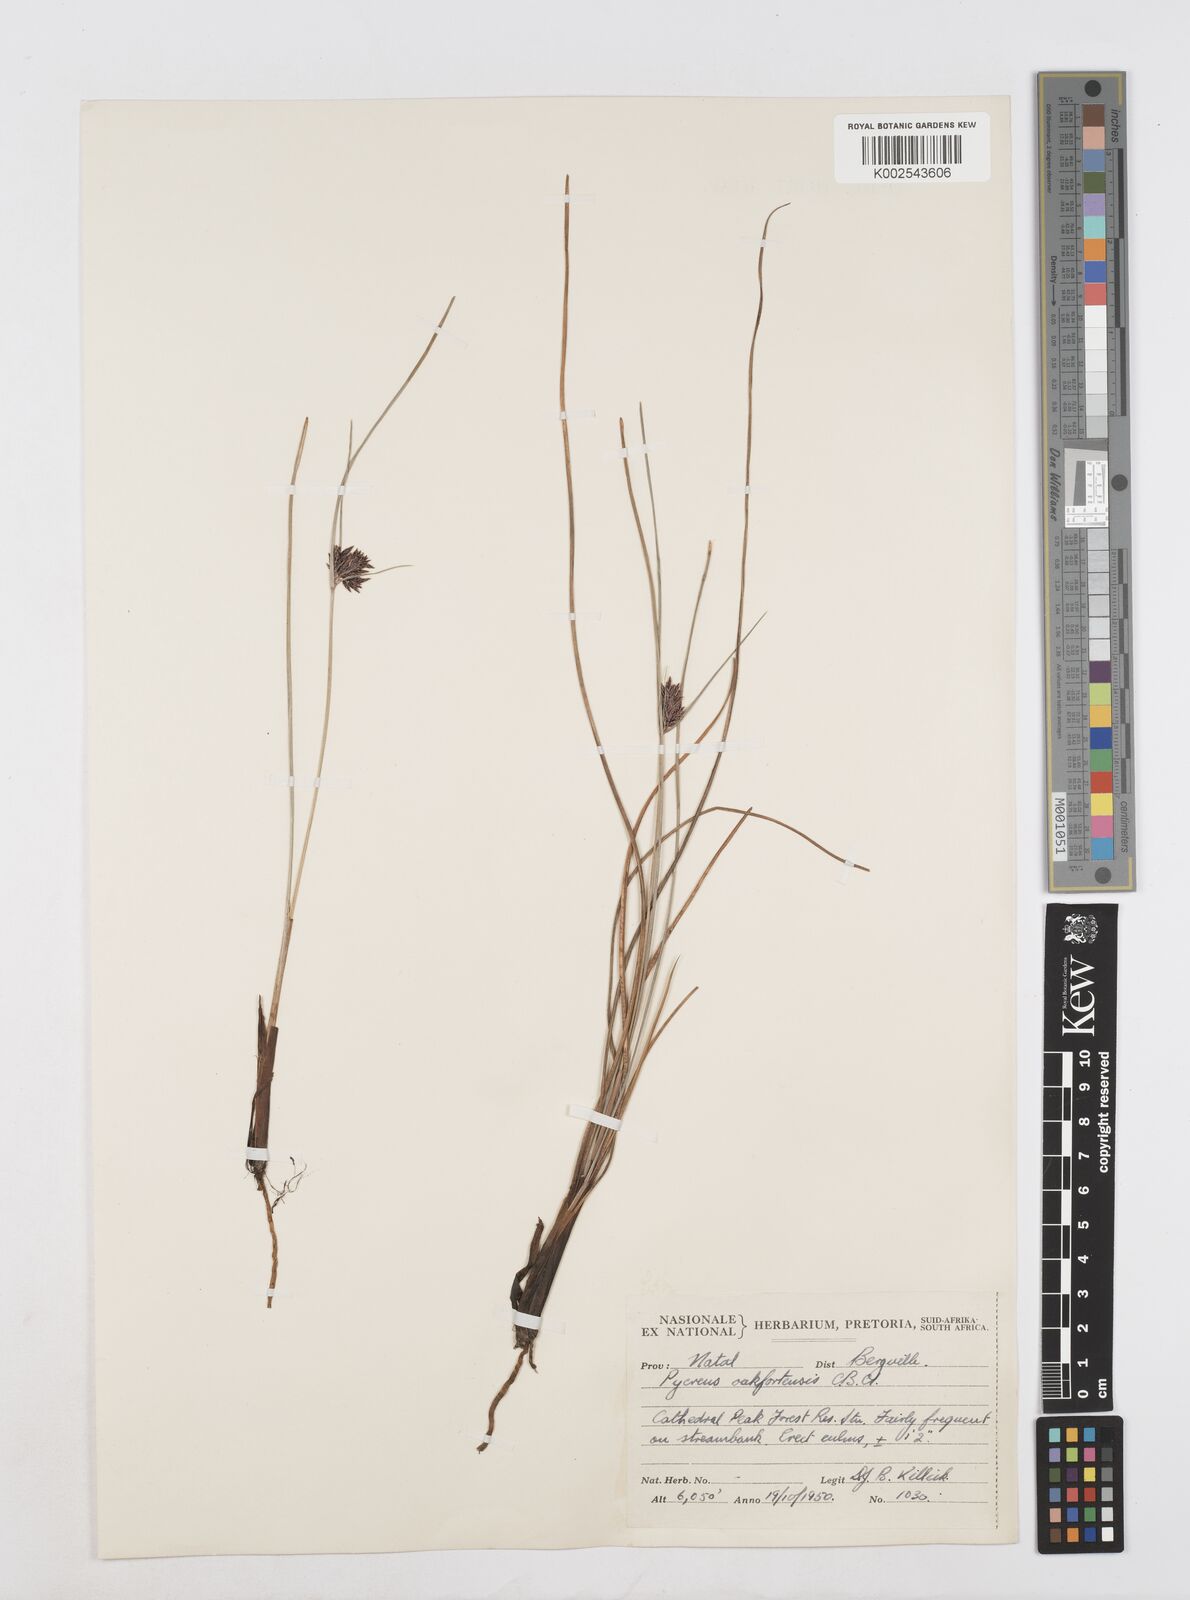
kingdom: Plantae
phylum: Tracheophyta
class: Liliopsida
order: Poales
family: Cyperaceae
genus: Cyperus
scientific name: Cyperus oakfortensis
